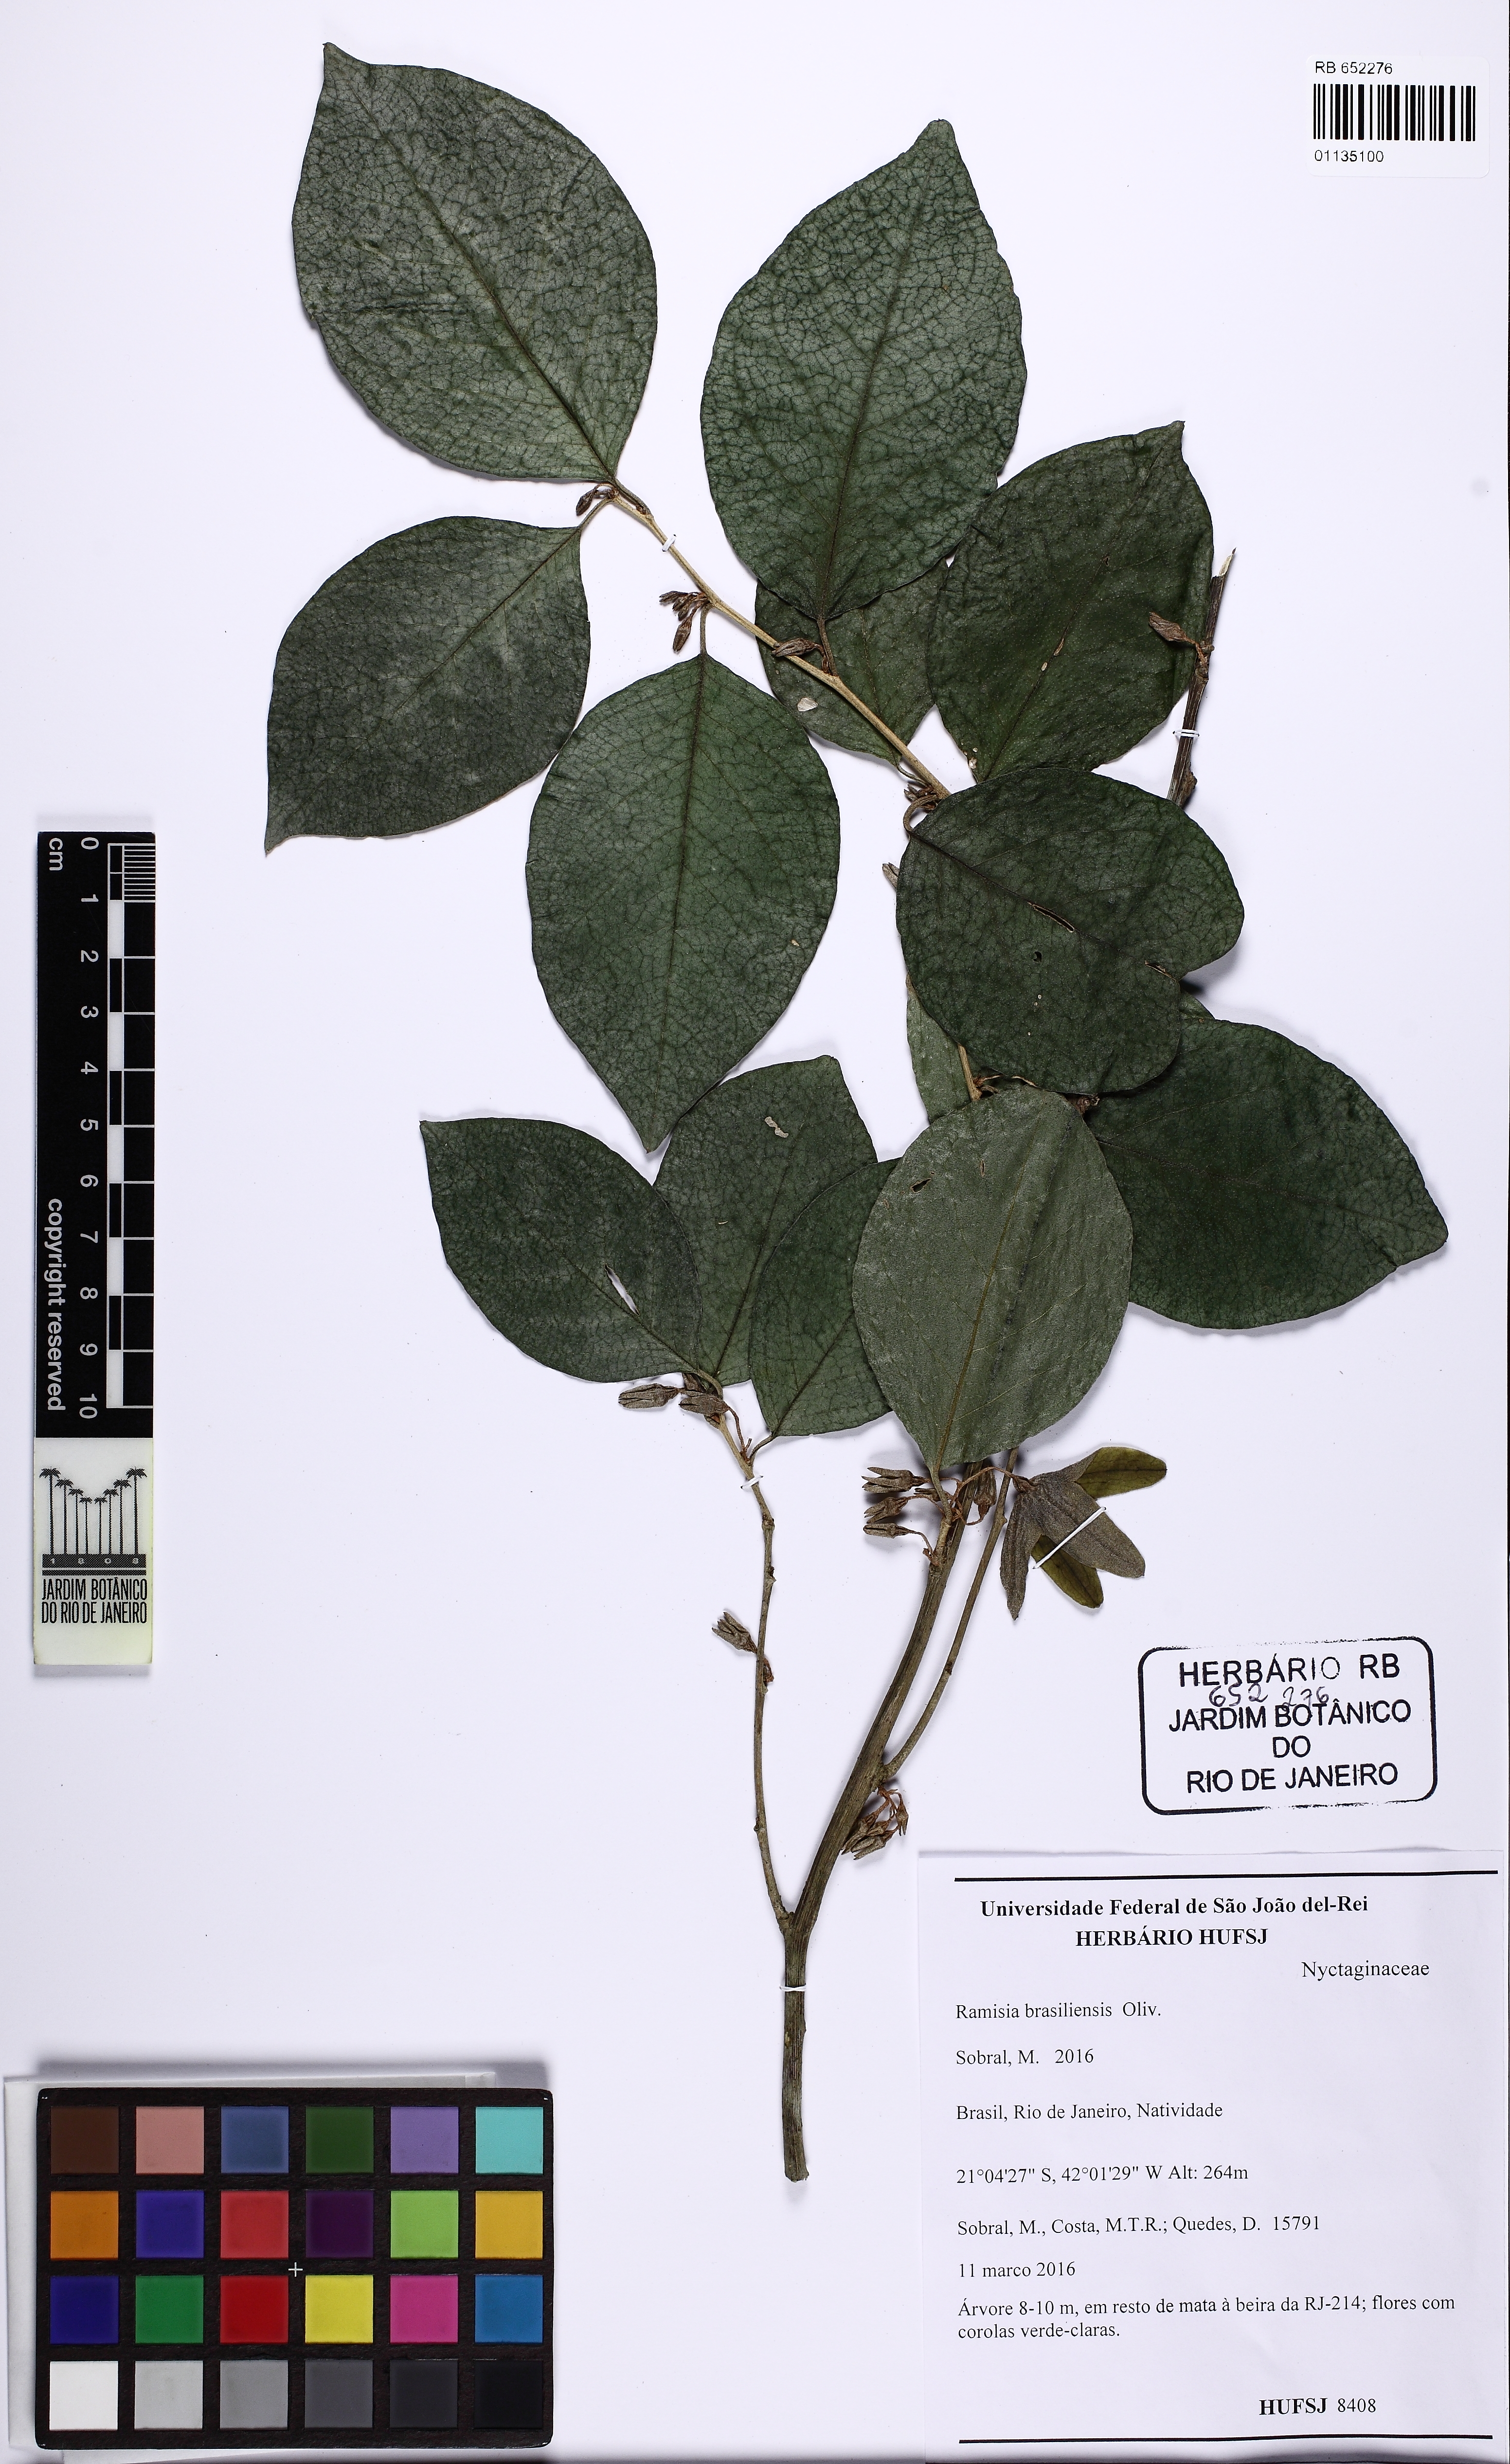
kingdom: Plantae
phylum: Tracheophyta
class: Magnoliopsida
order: Caryophyllales
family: Nyctaginaceae
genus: Ramisia
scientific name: Ramisia brasiliensis
